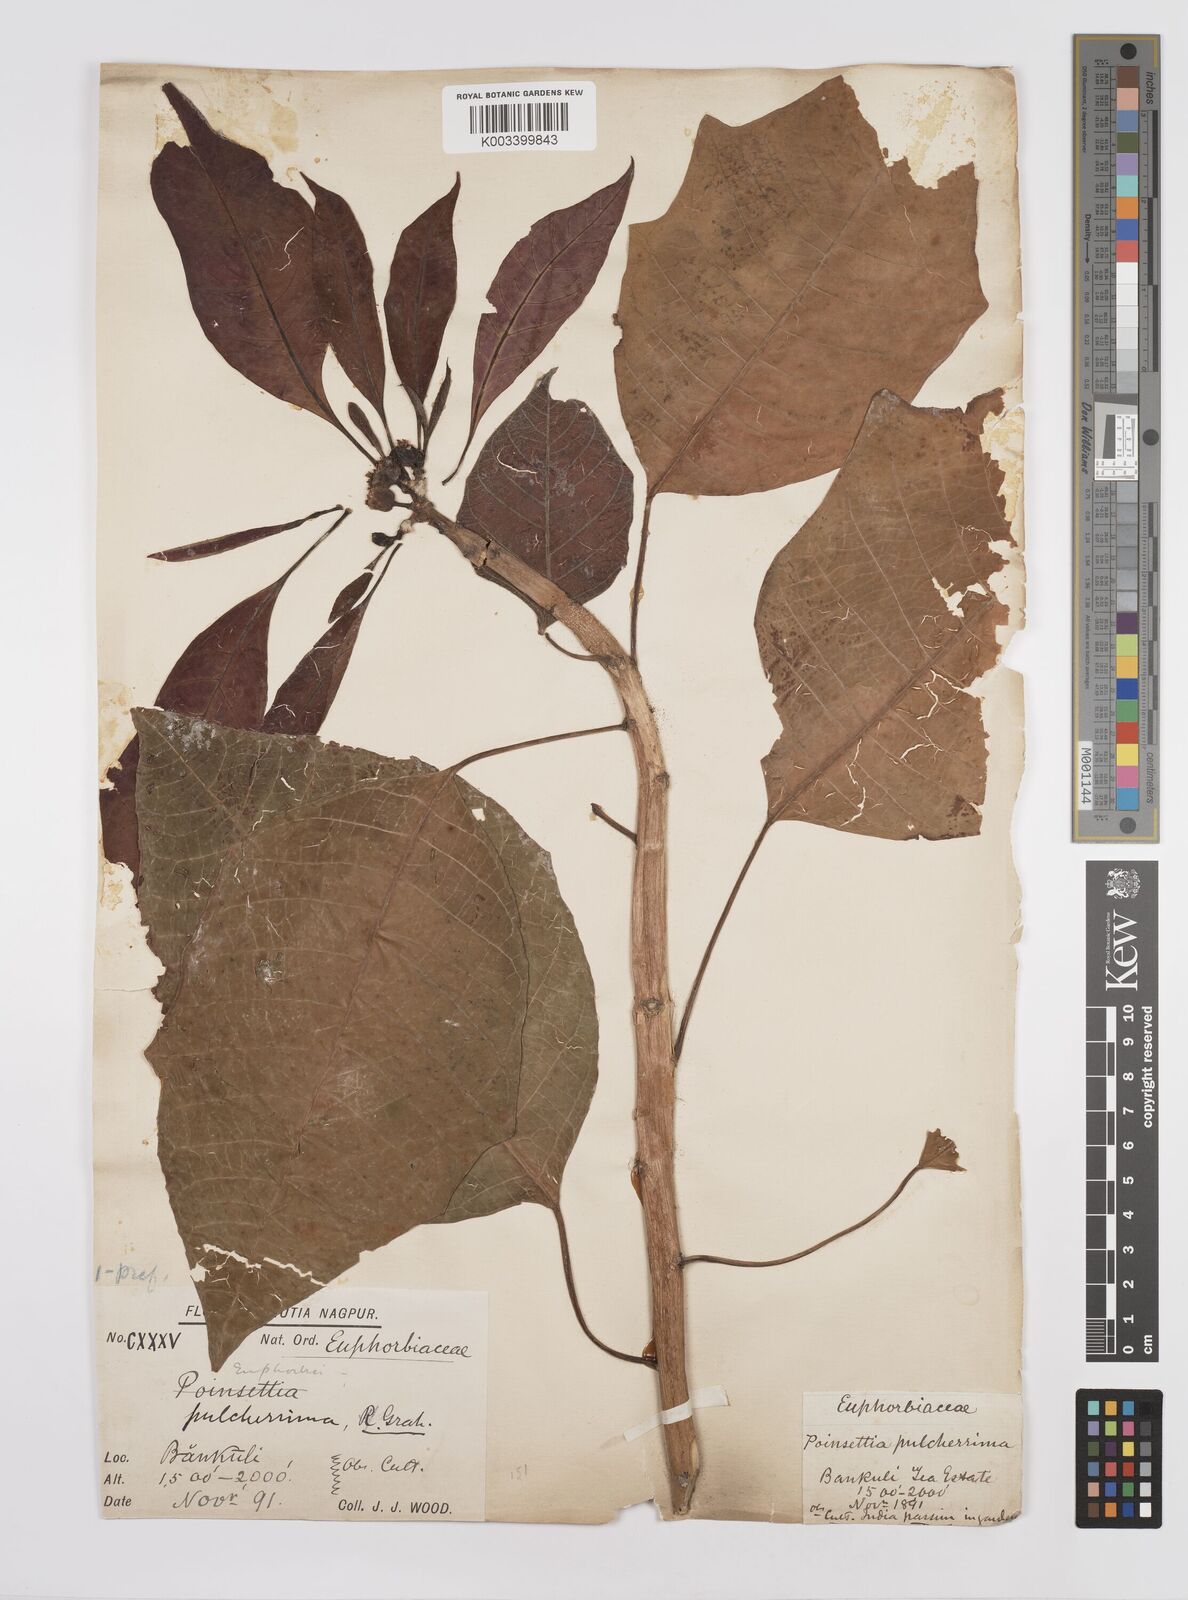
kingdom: Plantae
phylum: Tracheophyta
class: Magnoliopsida
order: Malpighiales
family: Euphorbiaceae
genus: Euphorbia
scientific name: Euphorbia pulcherrima
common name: Christmas-flower
